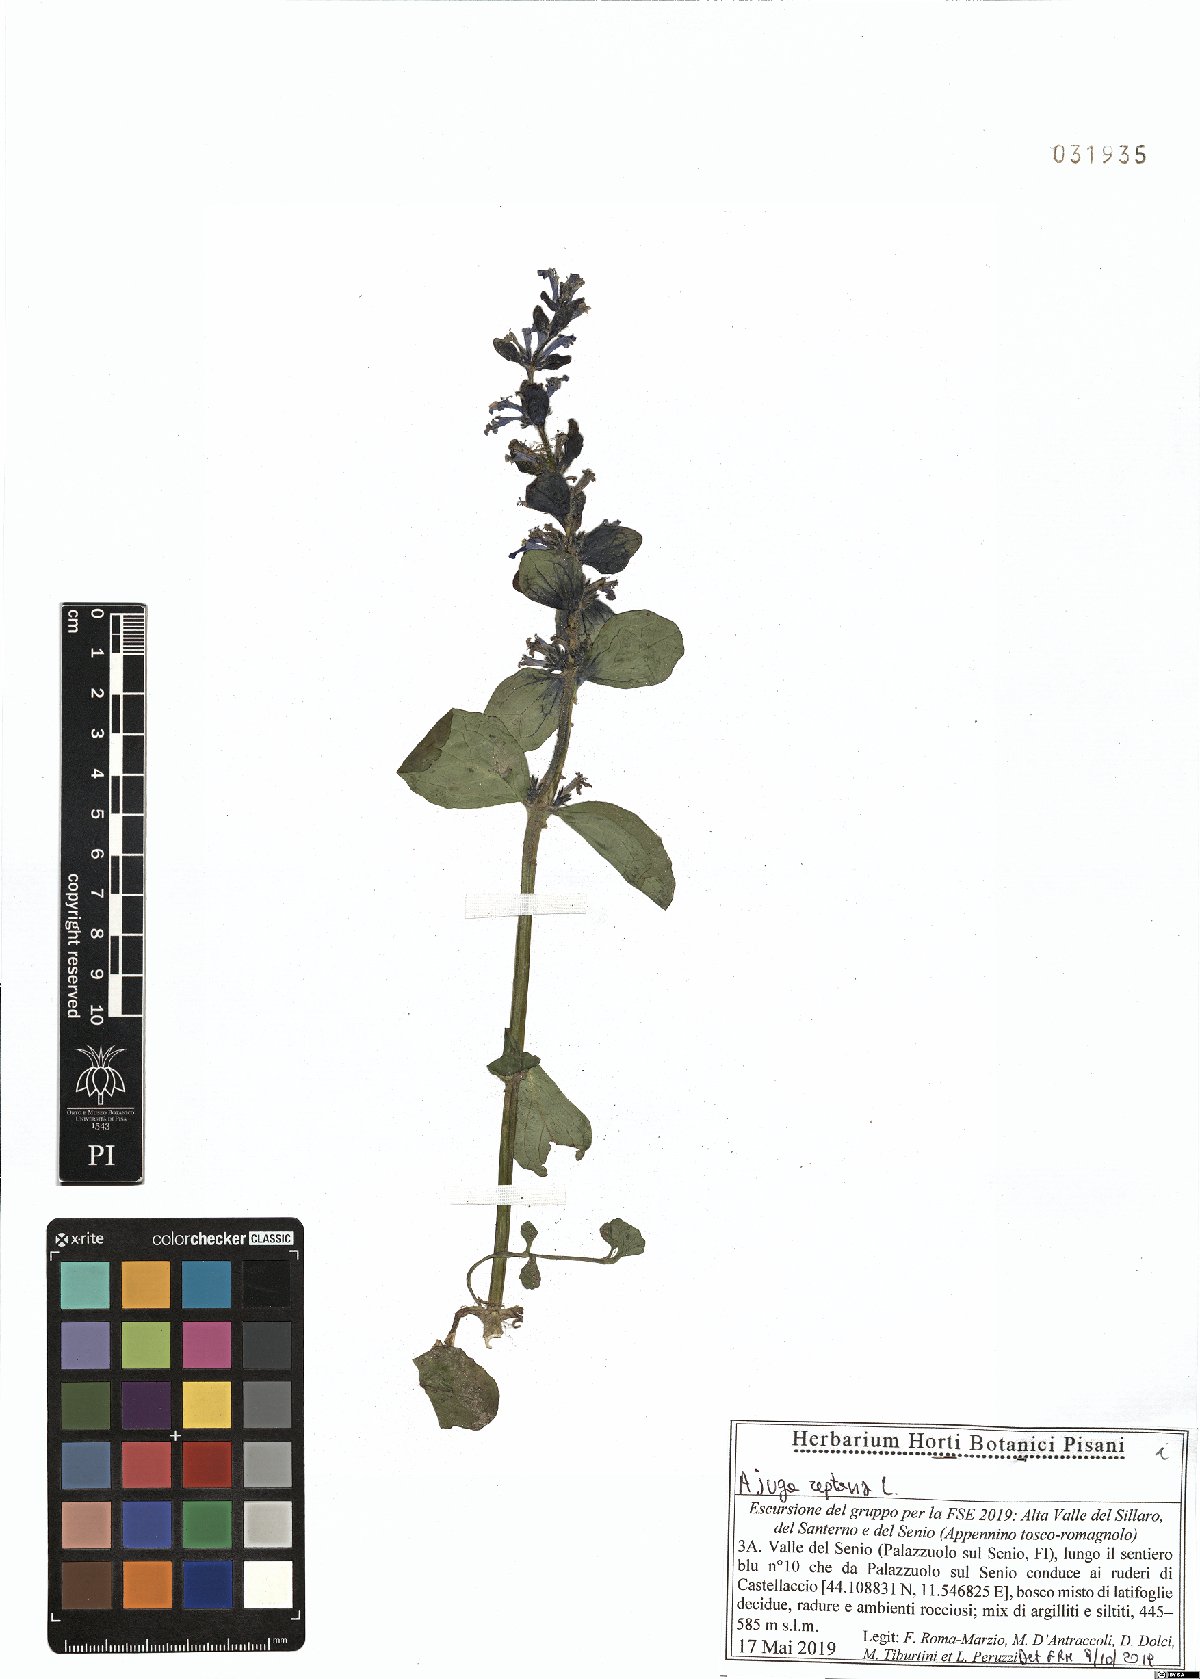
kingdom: Plantae
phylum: Tracheophyta
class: Magnoliopsida
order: Lamiales
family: Lamiaceae
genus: Ajuga
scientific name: Ajuga reptans
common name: Bugle
